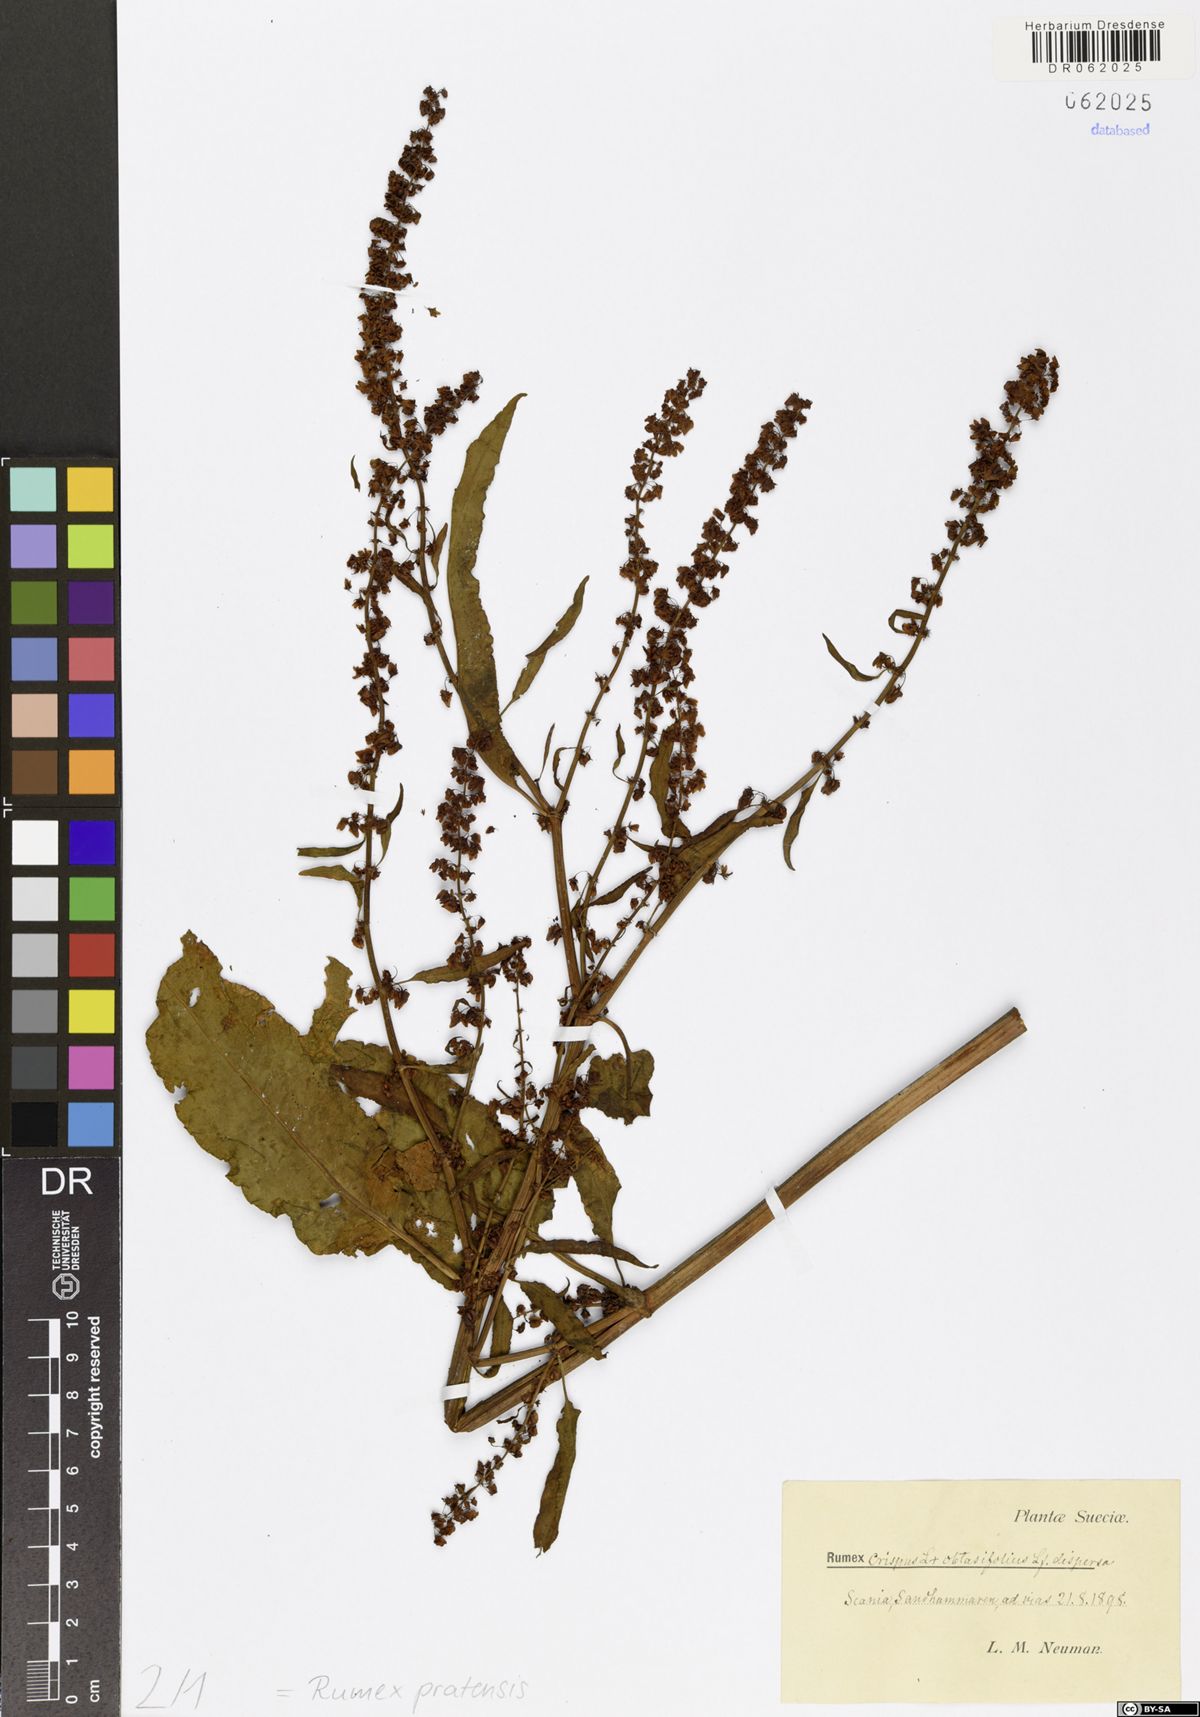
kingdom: Plantae
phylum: Tracheophyta
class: Magnoliopsida
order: Caryophyllales
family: Polygonaceae
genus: Rumex
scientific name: Rumex pratensis
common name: Knotweed
